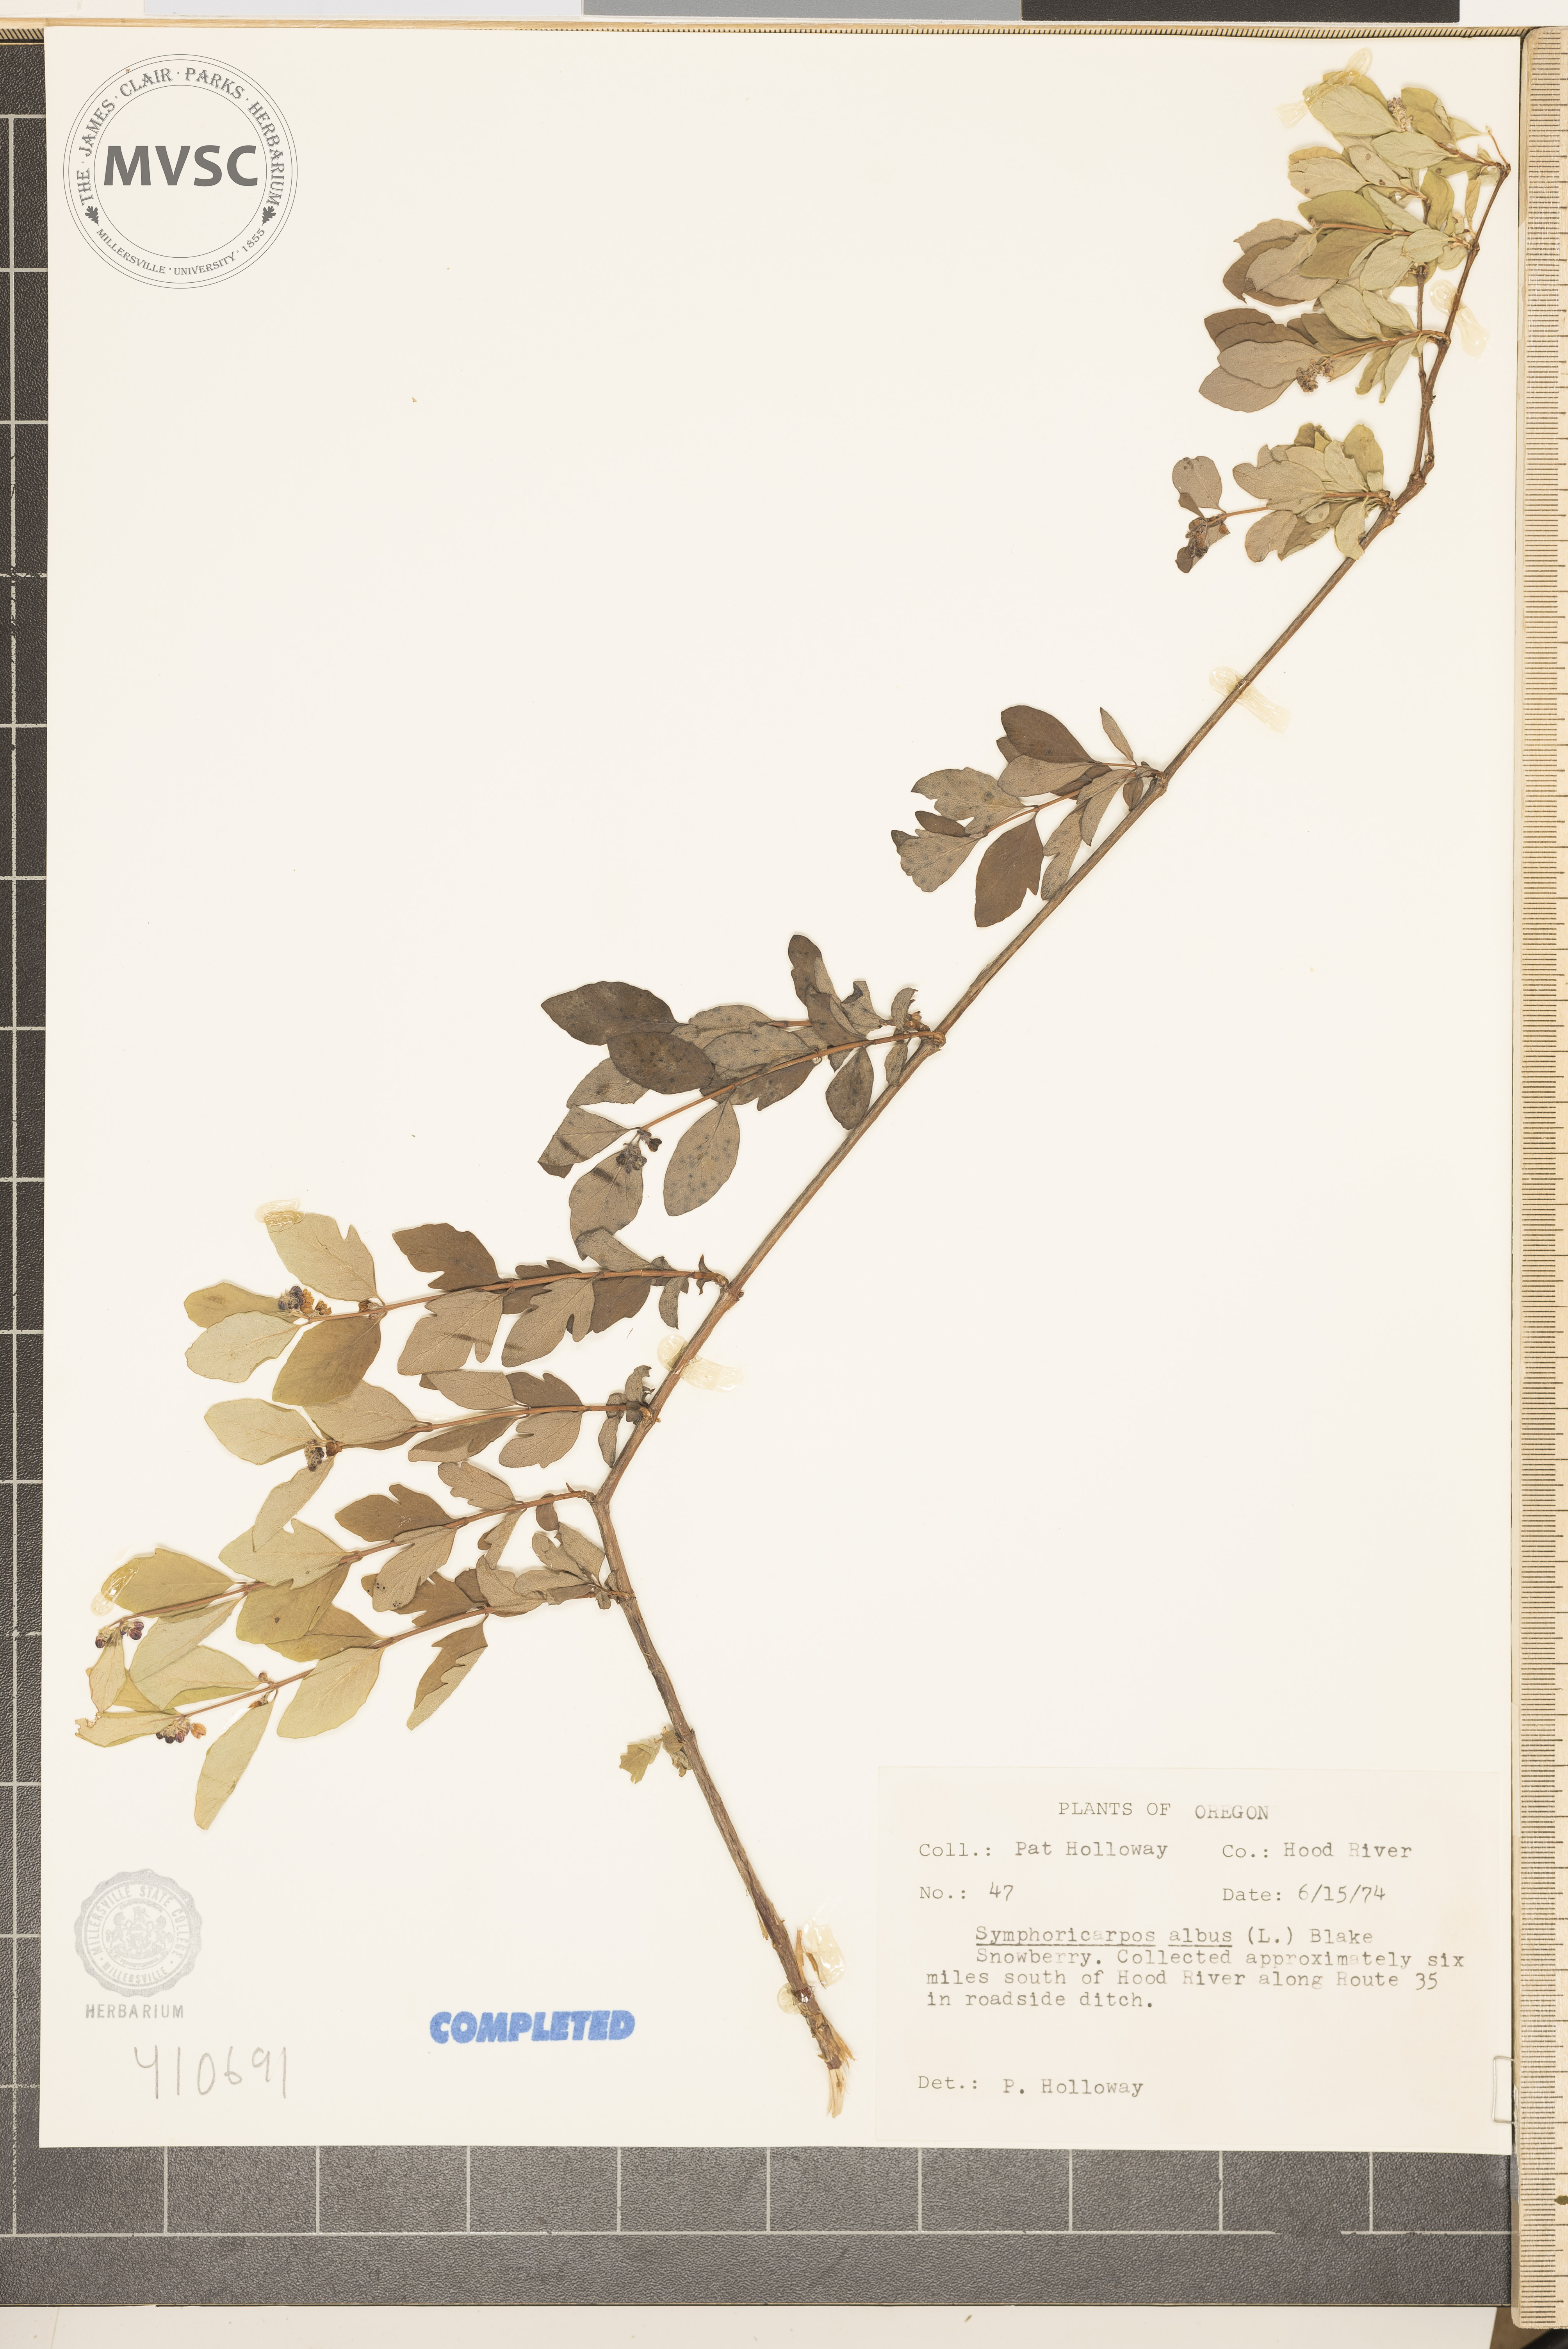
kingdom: Plantae
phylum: Tracheophyta
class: Magnoliopsida
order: Dipsacales
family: Caprifoliaceae
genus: Symphoricarpos
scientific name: Symphoricarpos albus
